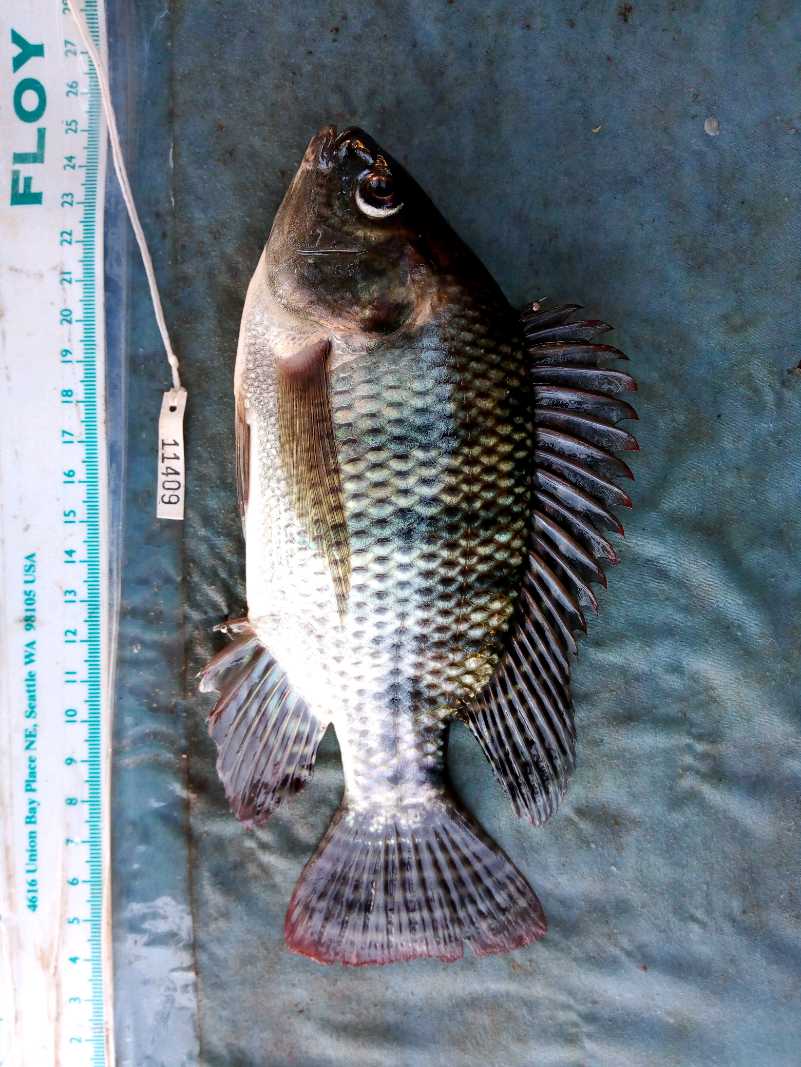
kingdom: Animalia
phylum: Chordata
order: Perciformes
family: Cichlidae
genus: Oreochromis
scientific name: Oreochromis niloticus
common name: Nile tilapia
